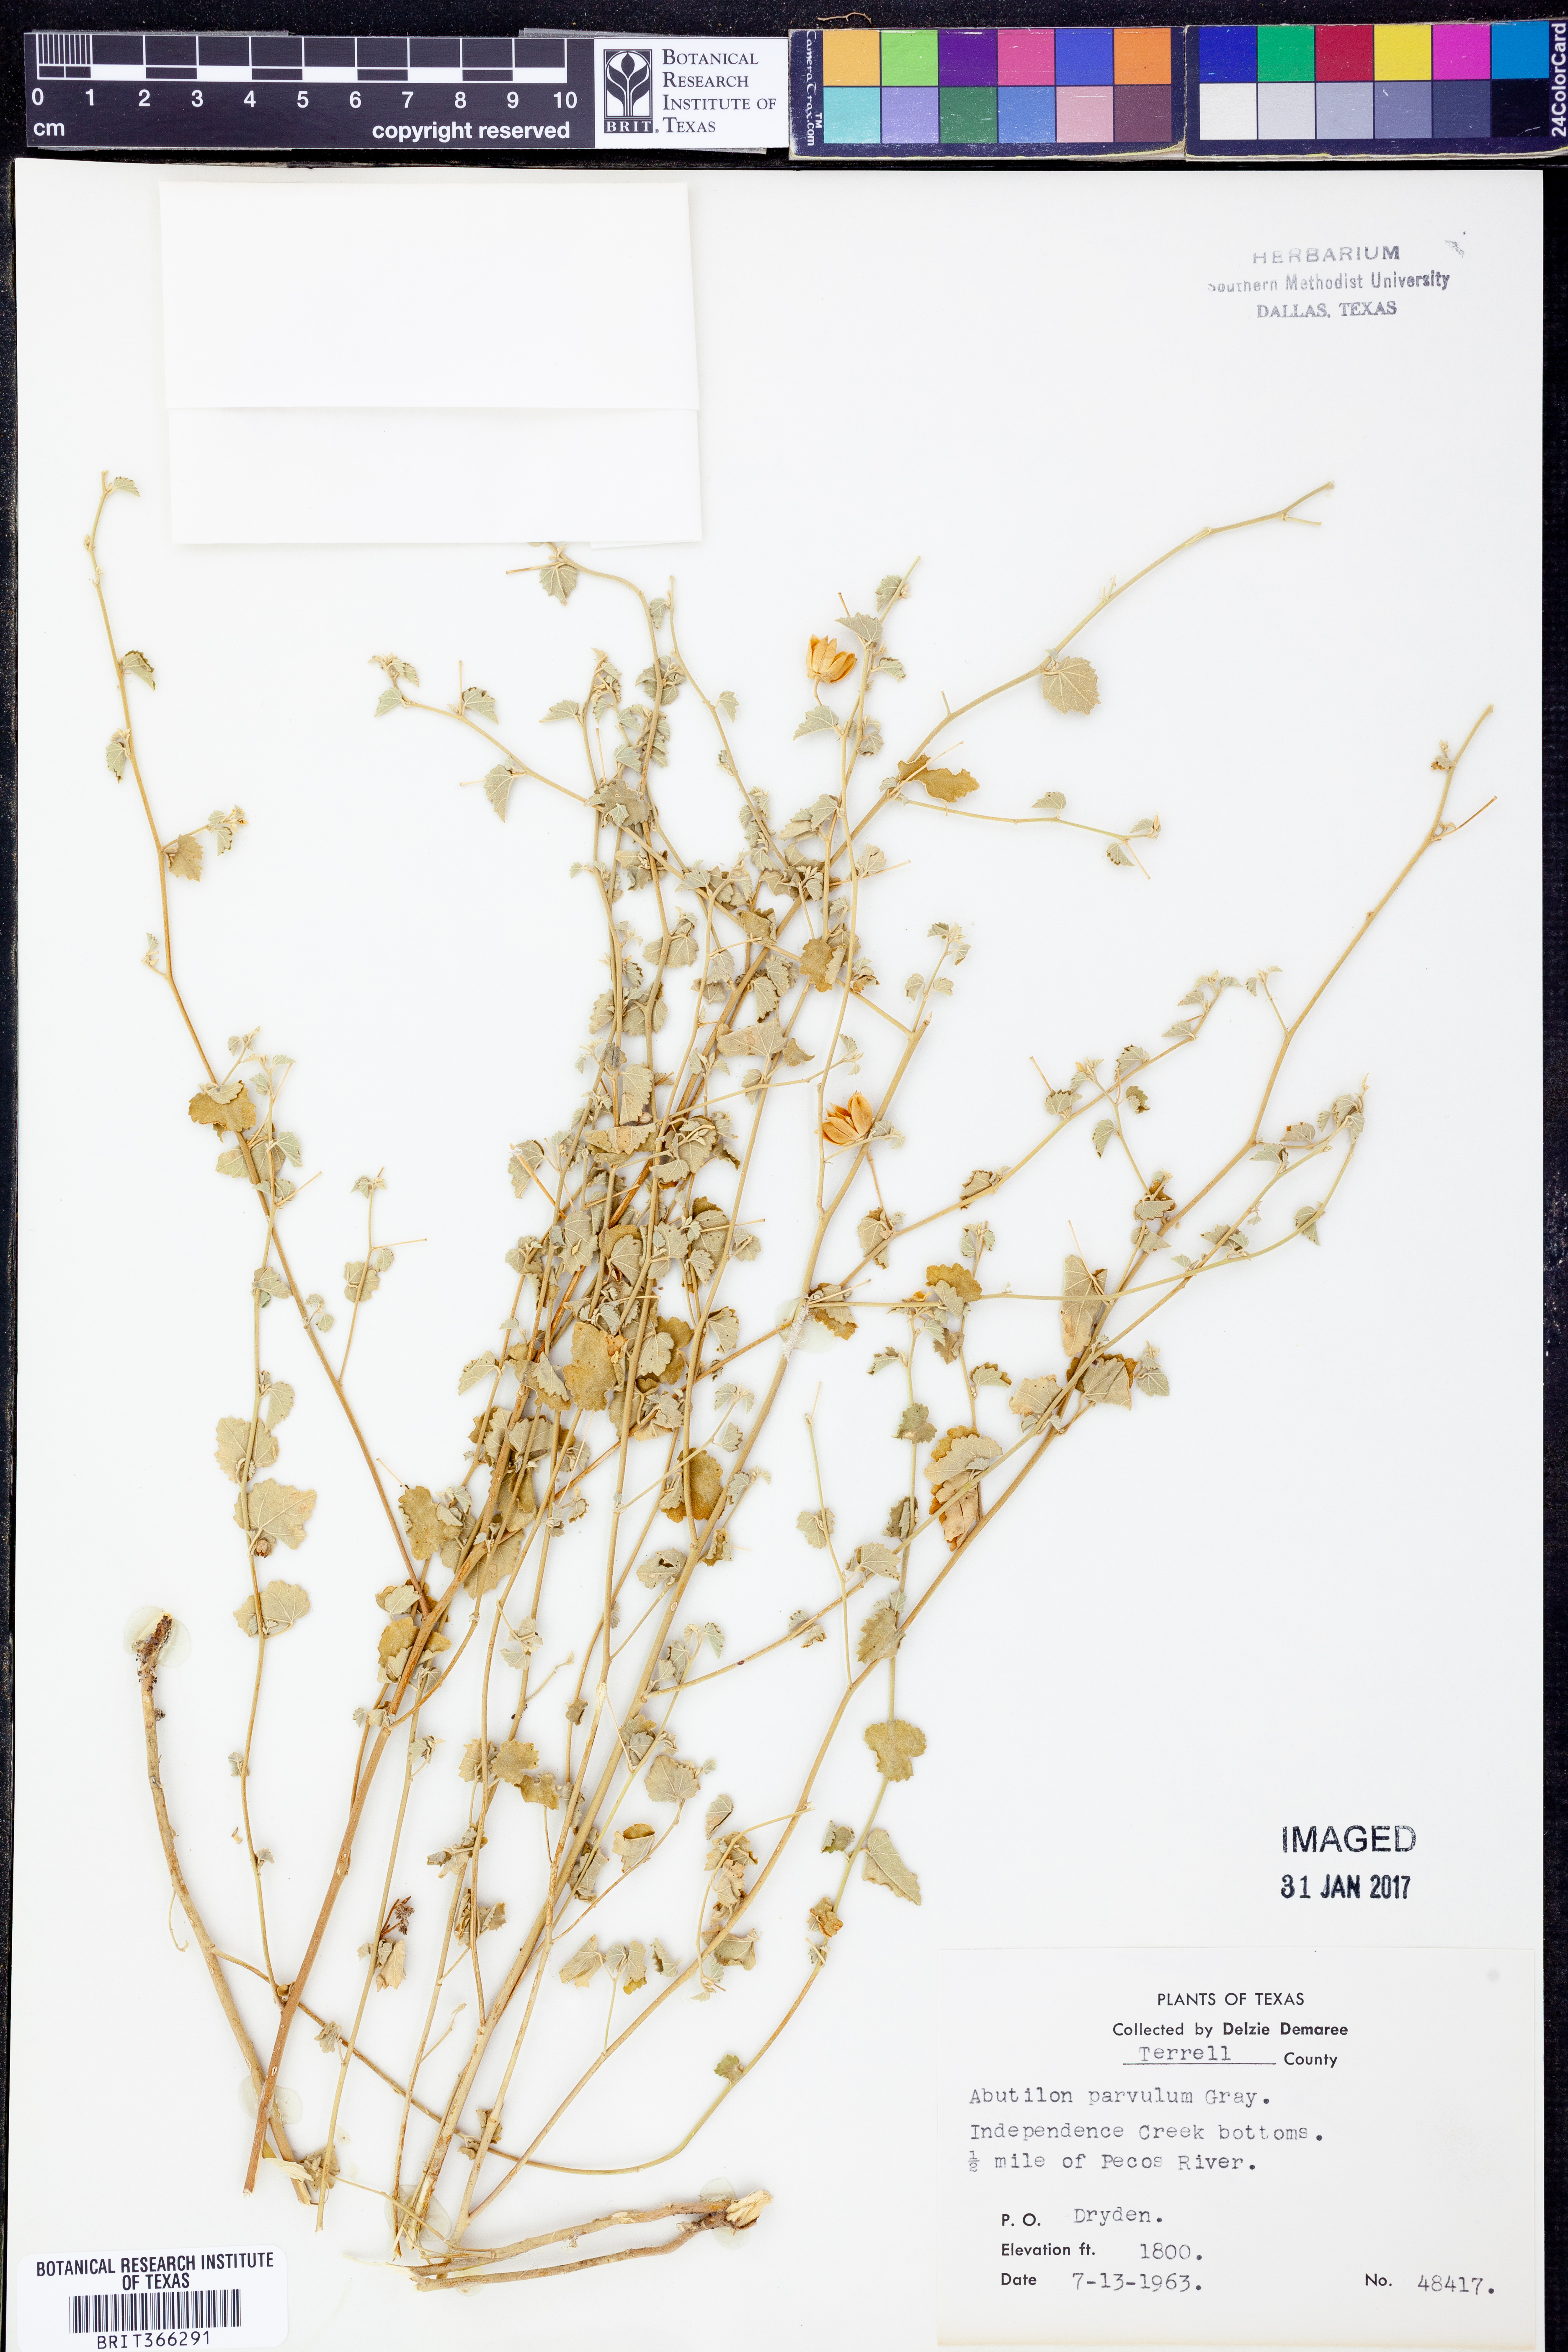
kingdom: Plantae
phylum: Tracheophyta
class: Magnoliopsida
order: Malvales
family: Malvaceae
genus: Abutilon
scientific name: Abutilon parvulum
